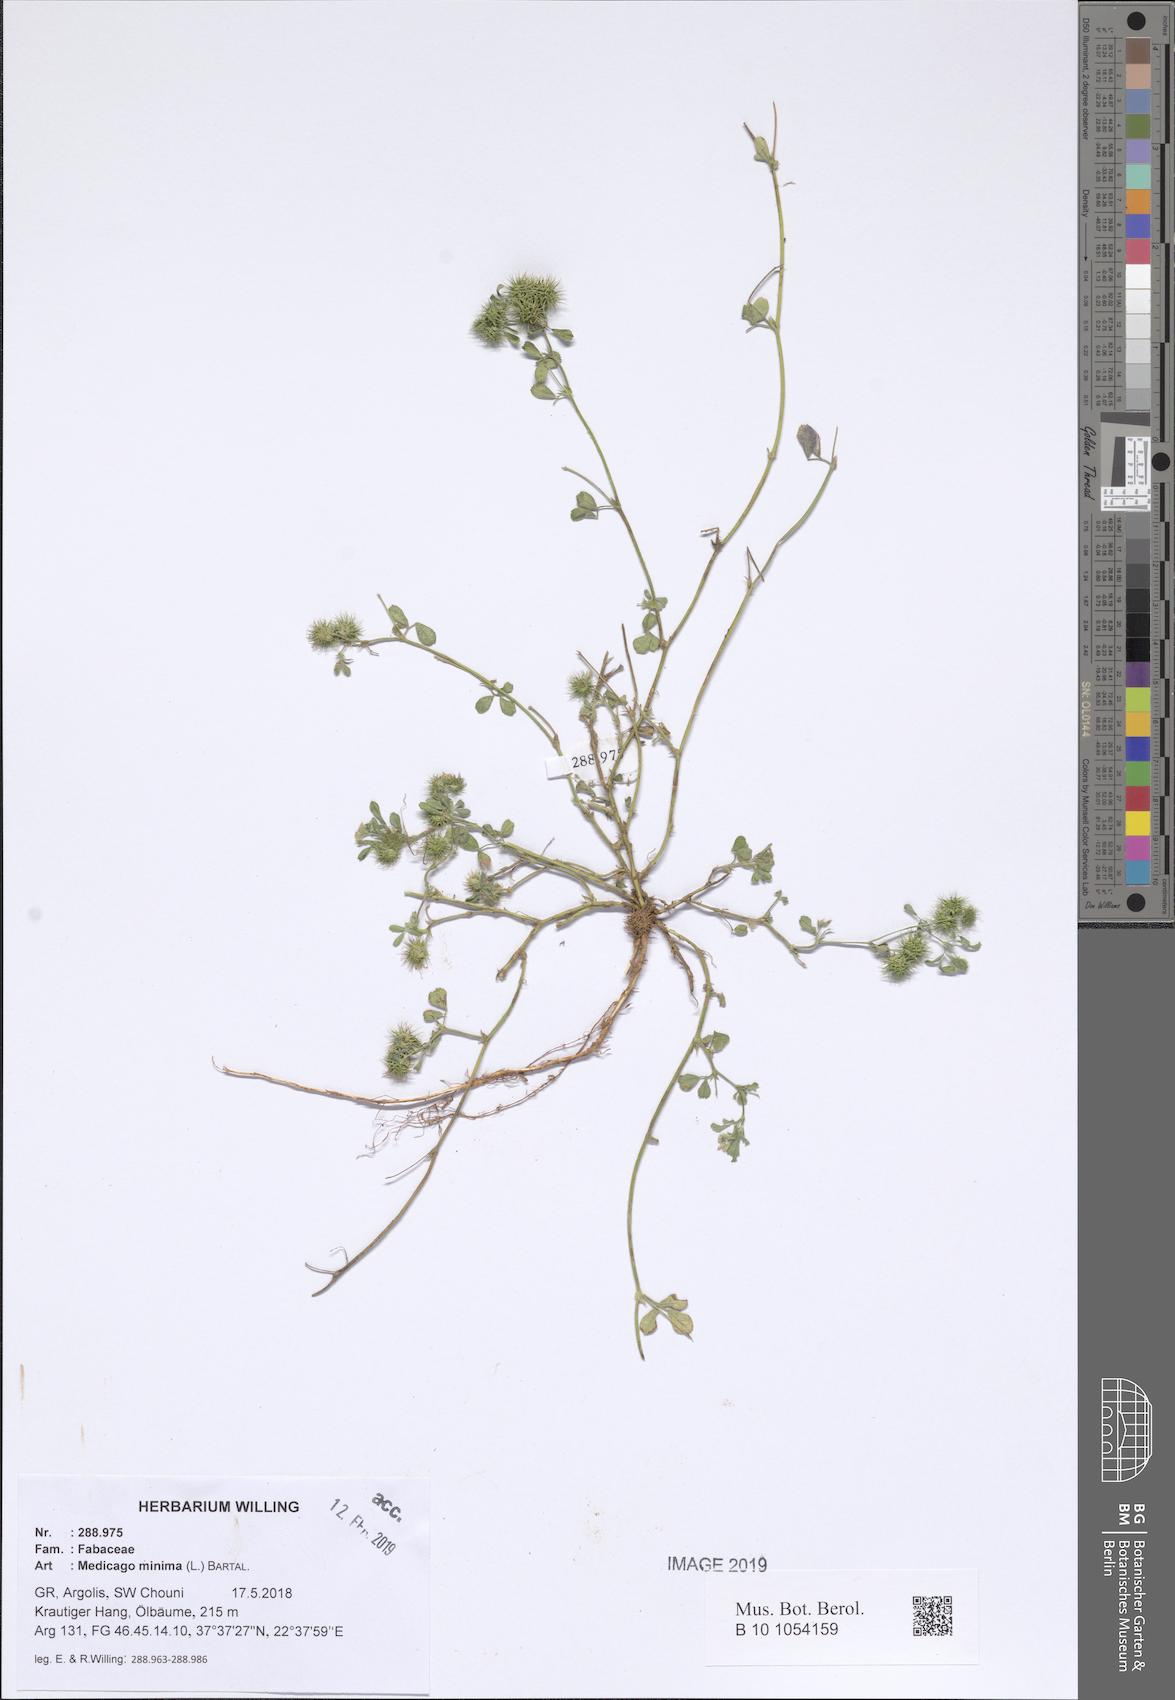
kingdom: Plantae
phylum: Tracheophyta
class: Magnoliopsida
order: Fabales
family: Fabaceae
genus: Medicago
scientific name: Medicago minima
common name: Little bur-clover
